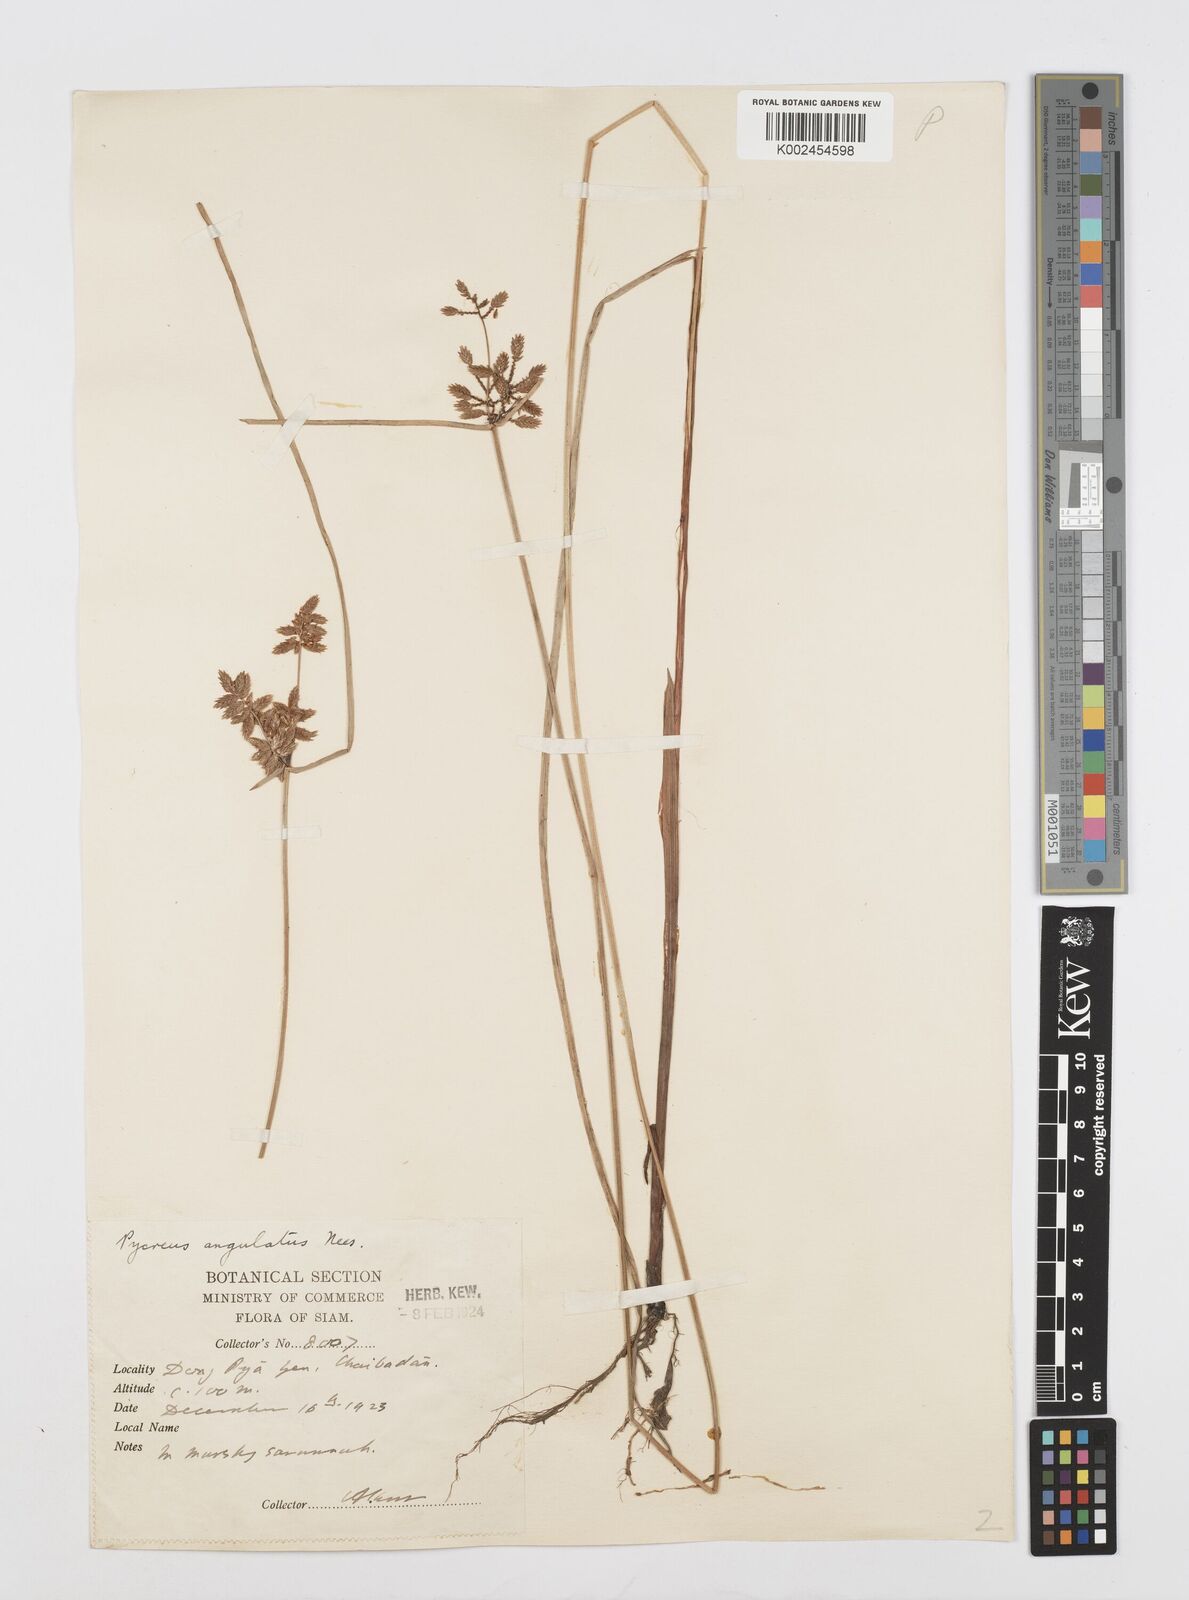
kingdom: Plantae
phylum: Tracheophyta
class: Liliopsida
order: Poales
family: Cyperaceae
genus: Cyperus
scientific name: Cyperus unioloides
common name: Uniola flatsedge
